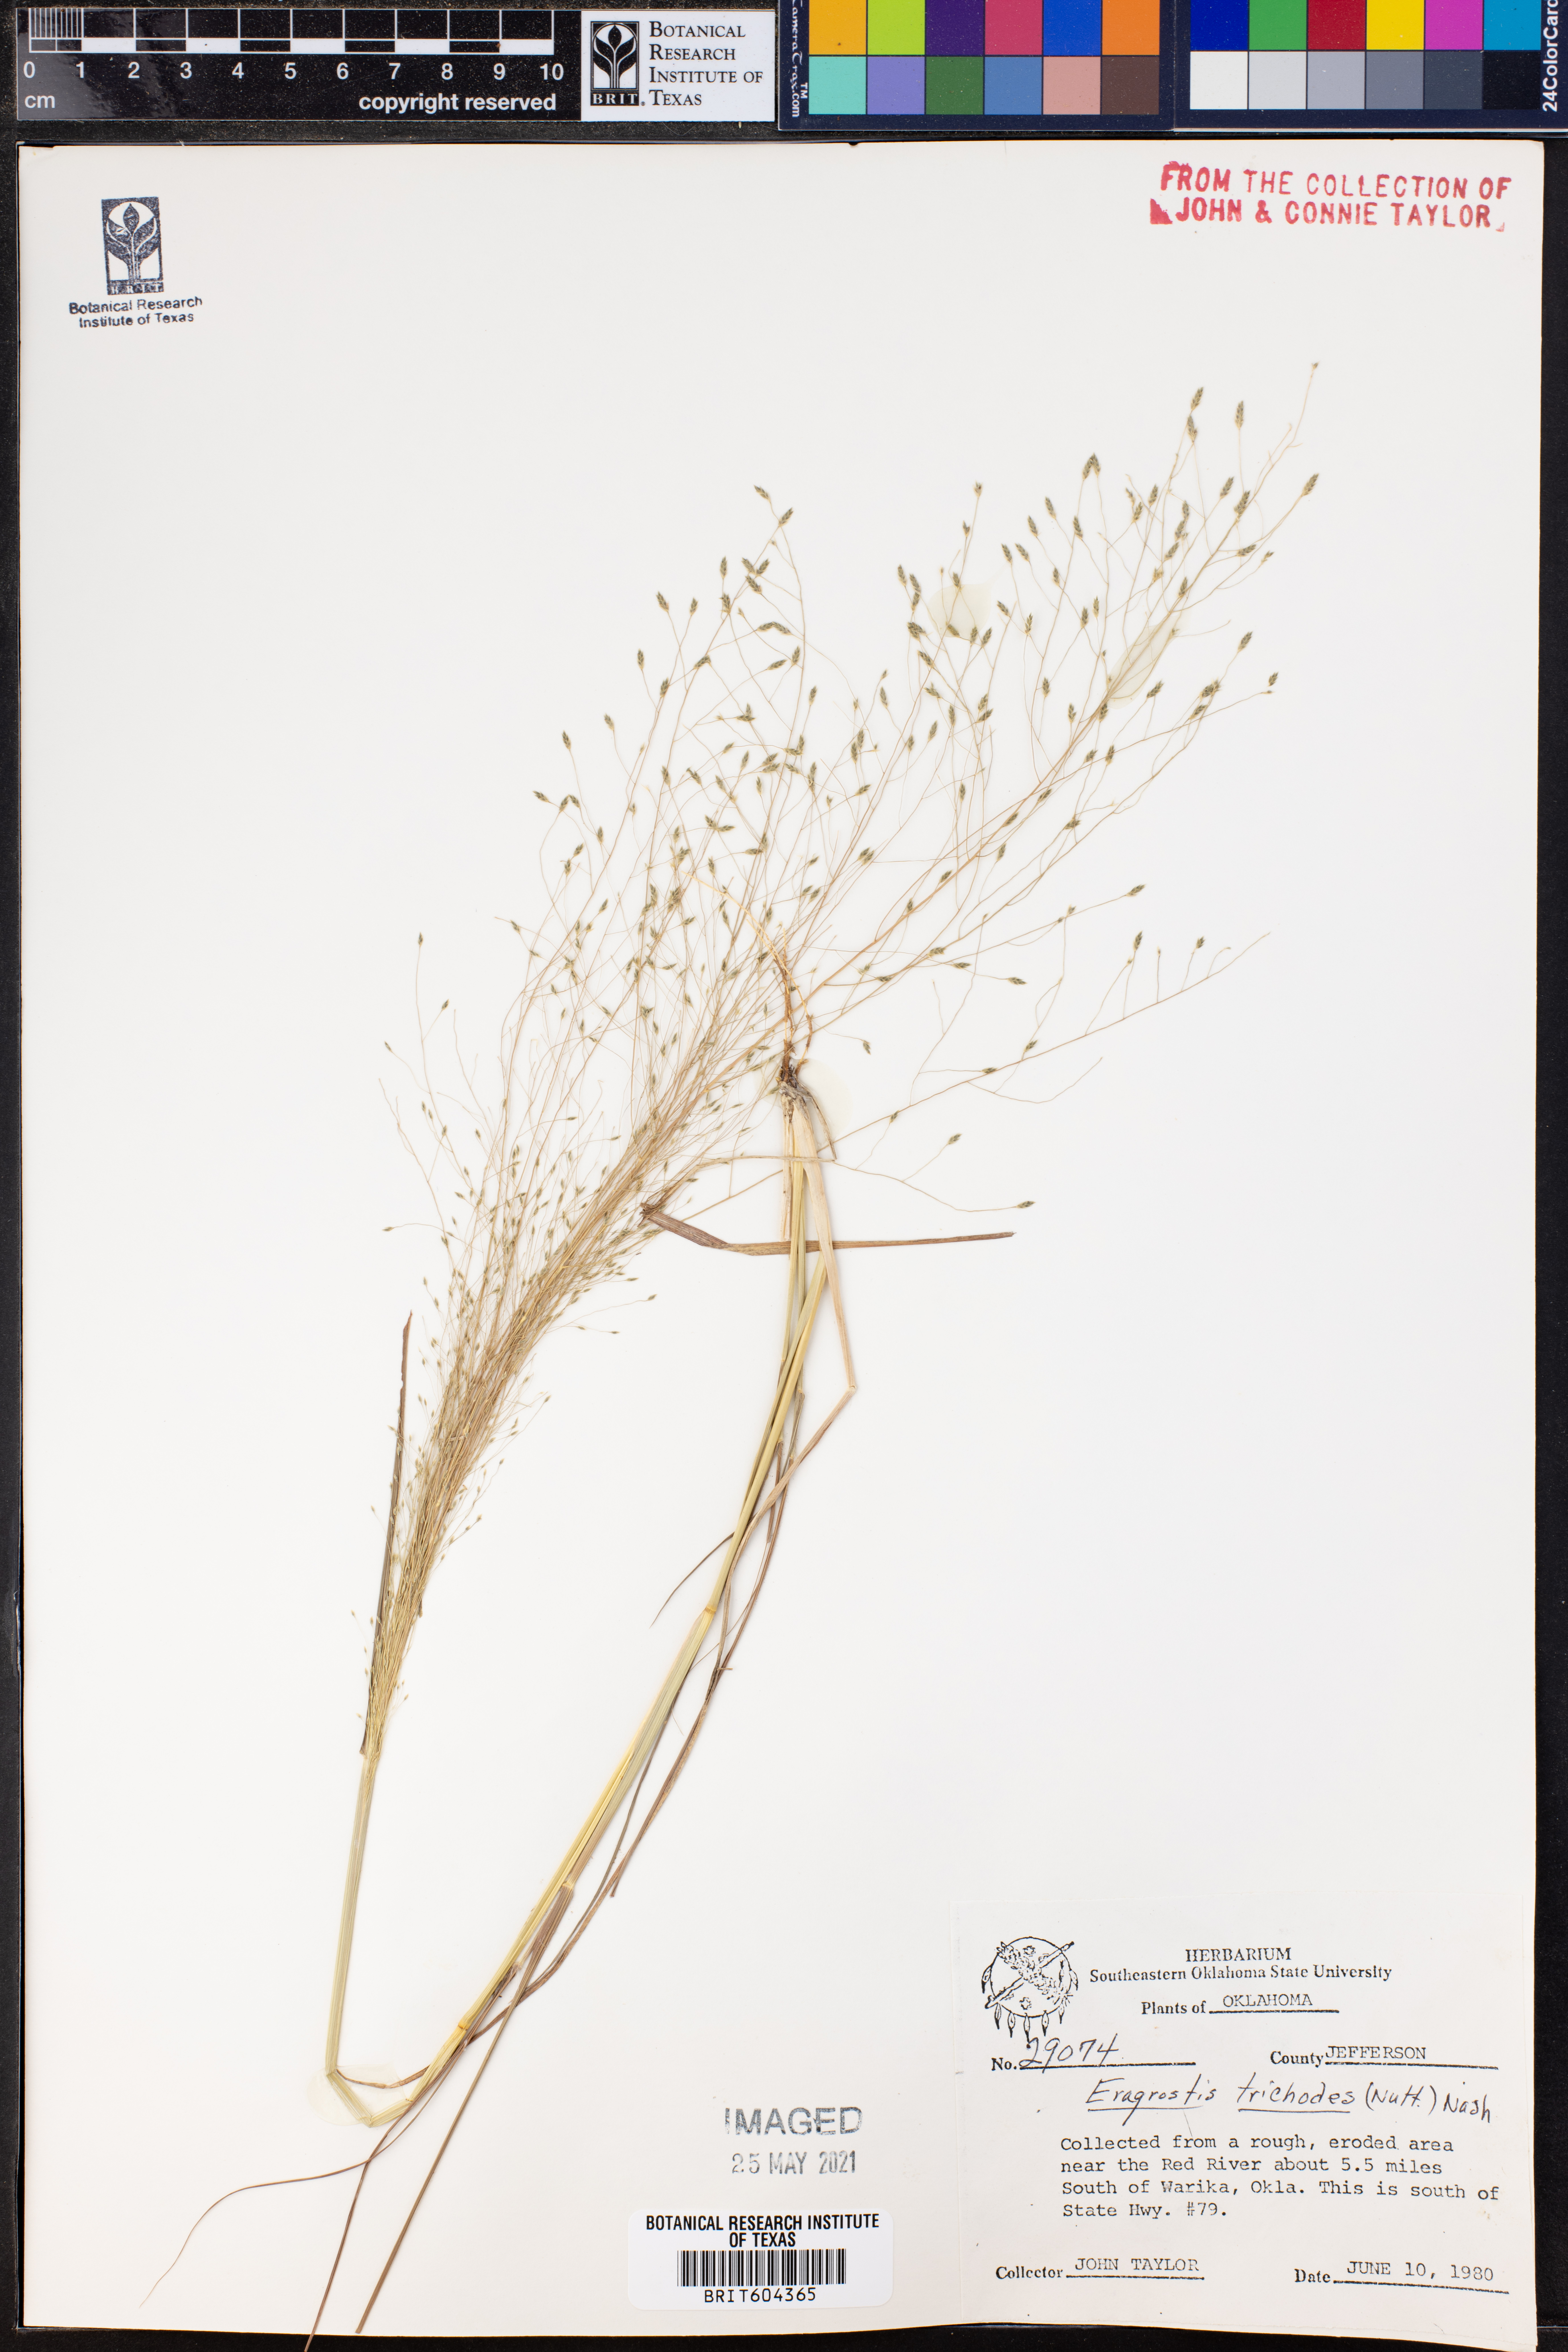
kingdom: Plantae
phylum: Tracheophyta
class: Liliopsida
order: Poales
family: Poaceae
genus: Eragrostis
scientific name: Eragrostis trichodes
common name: Sand love grass
